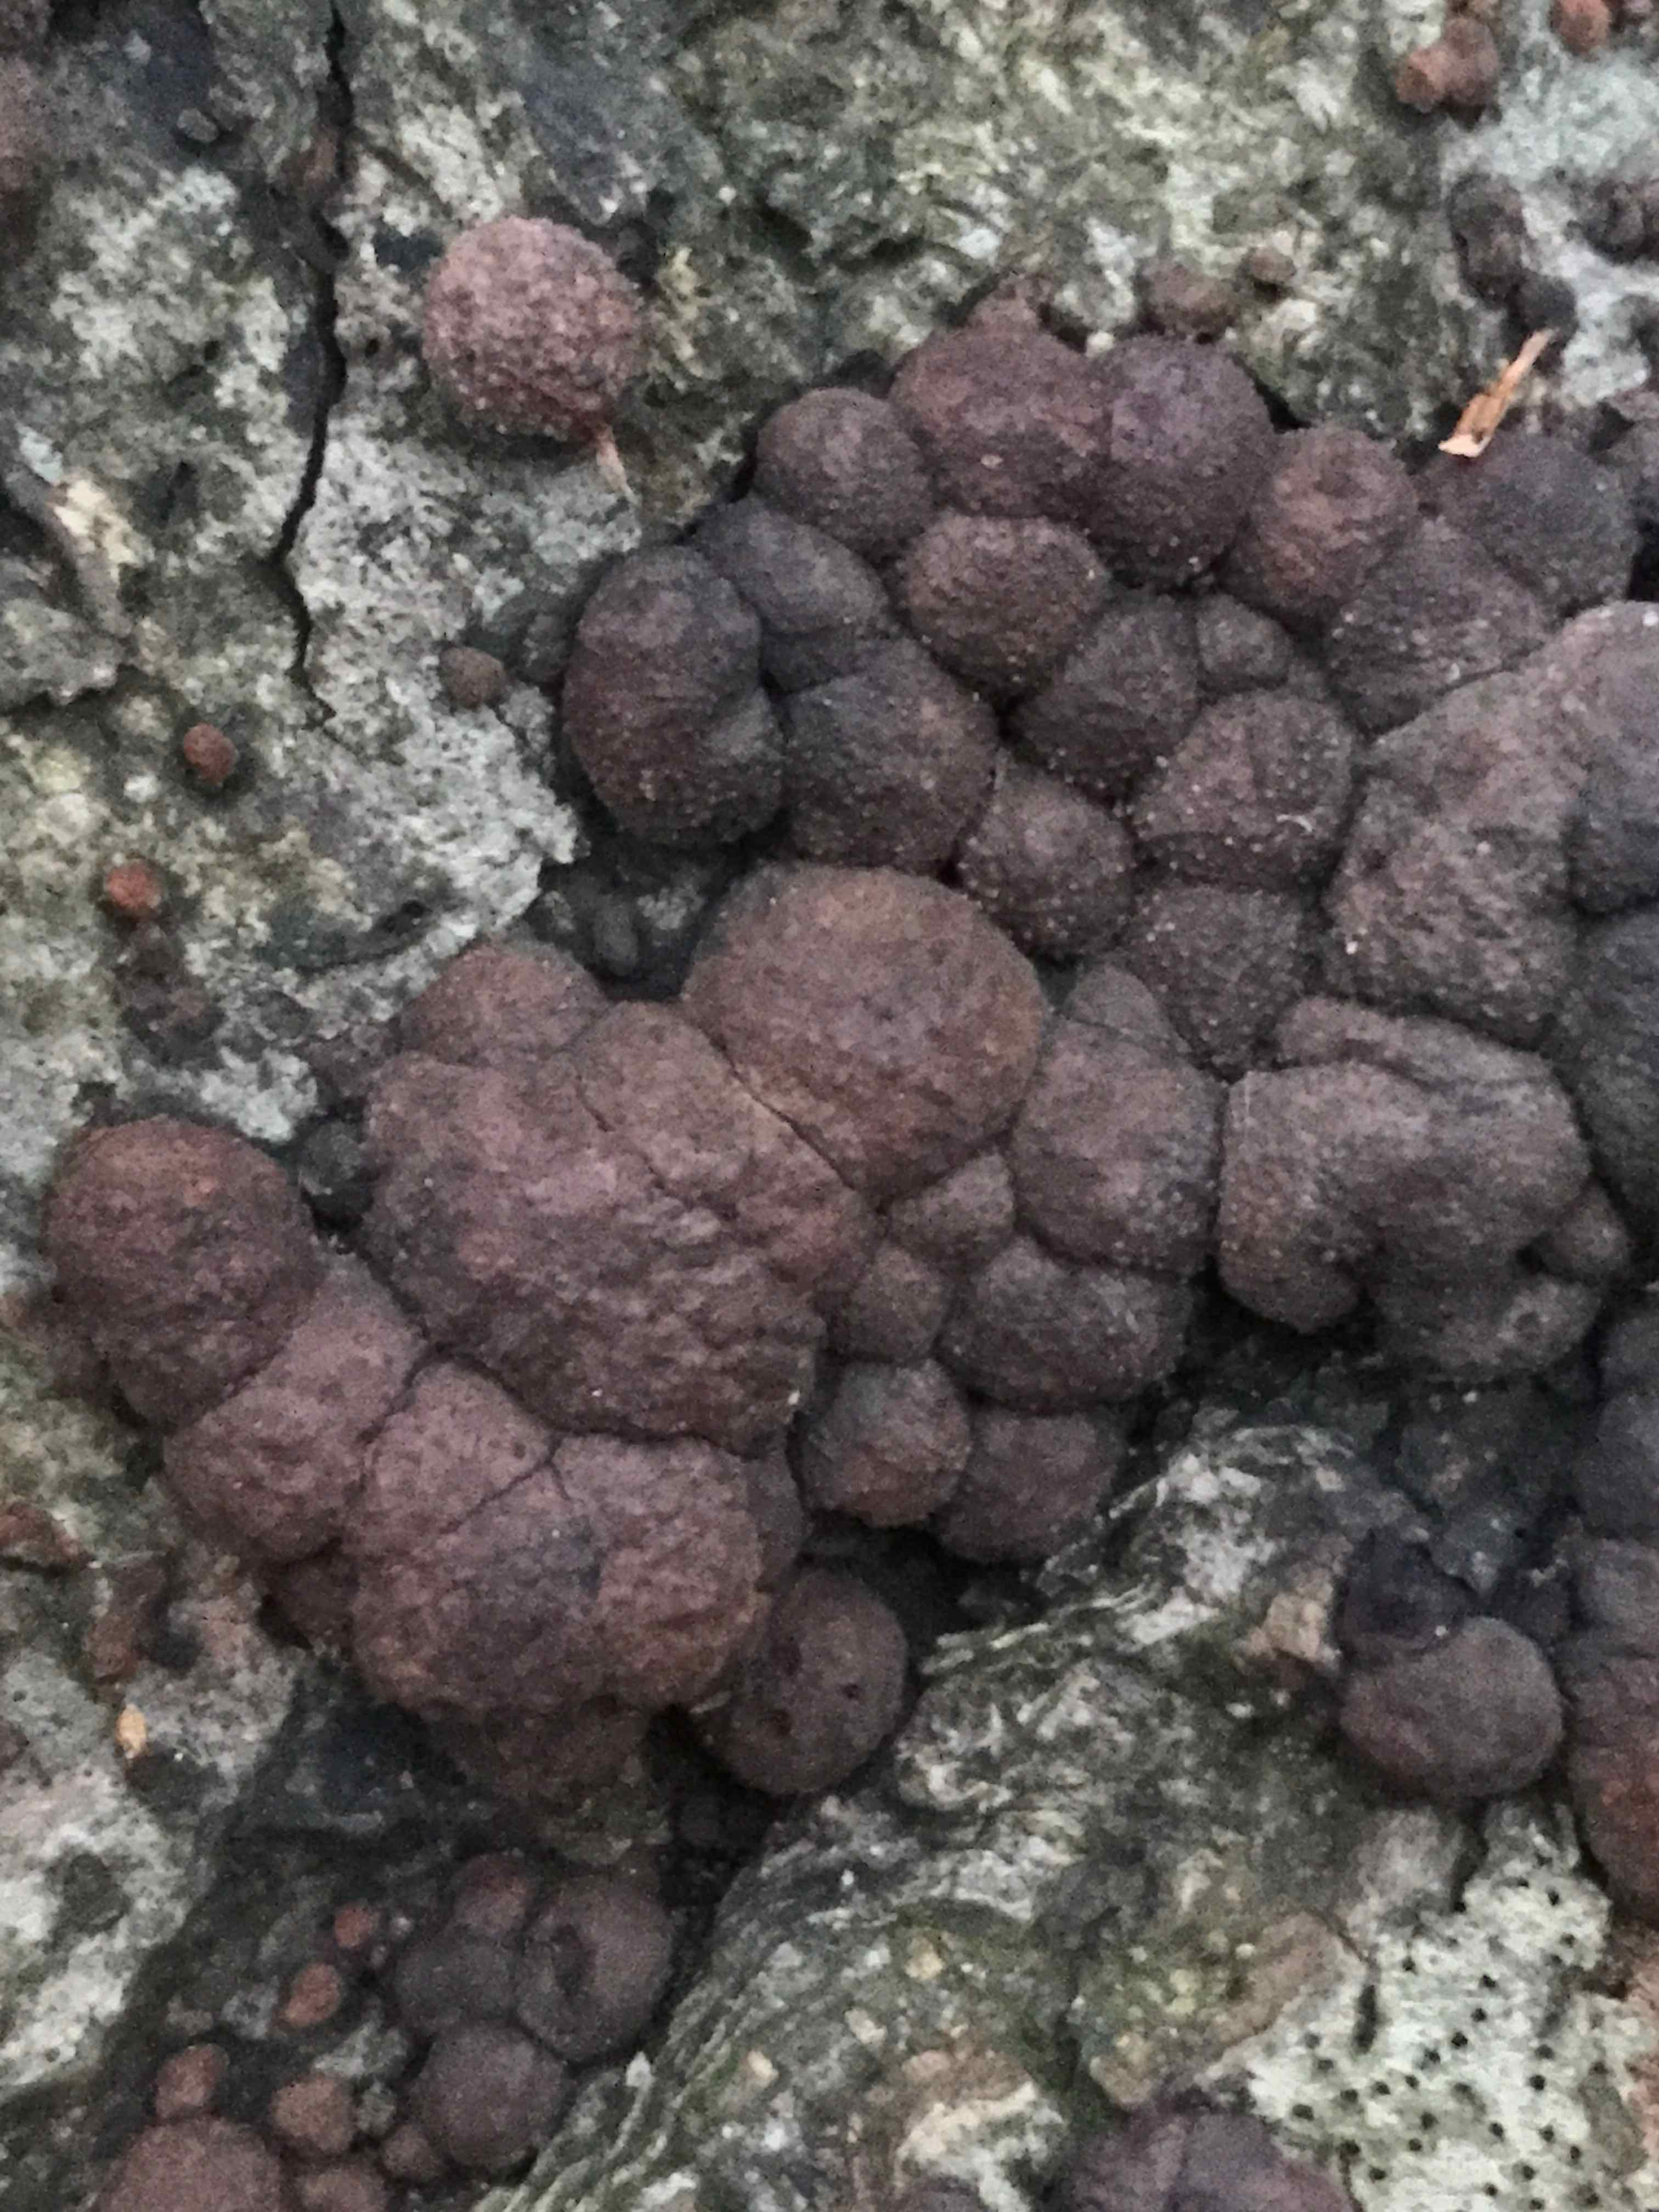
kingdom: Fungi
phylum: Ascomycota
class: Sordariomycetes
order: Xylariales
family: Hypoxylaceae
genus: Hypoxylon
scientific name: Hypoxylon fragiforme
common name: kuljordbær
